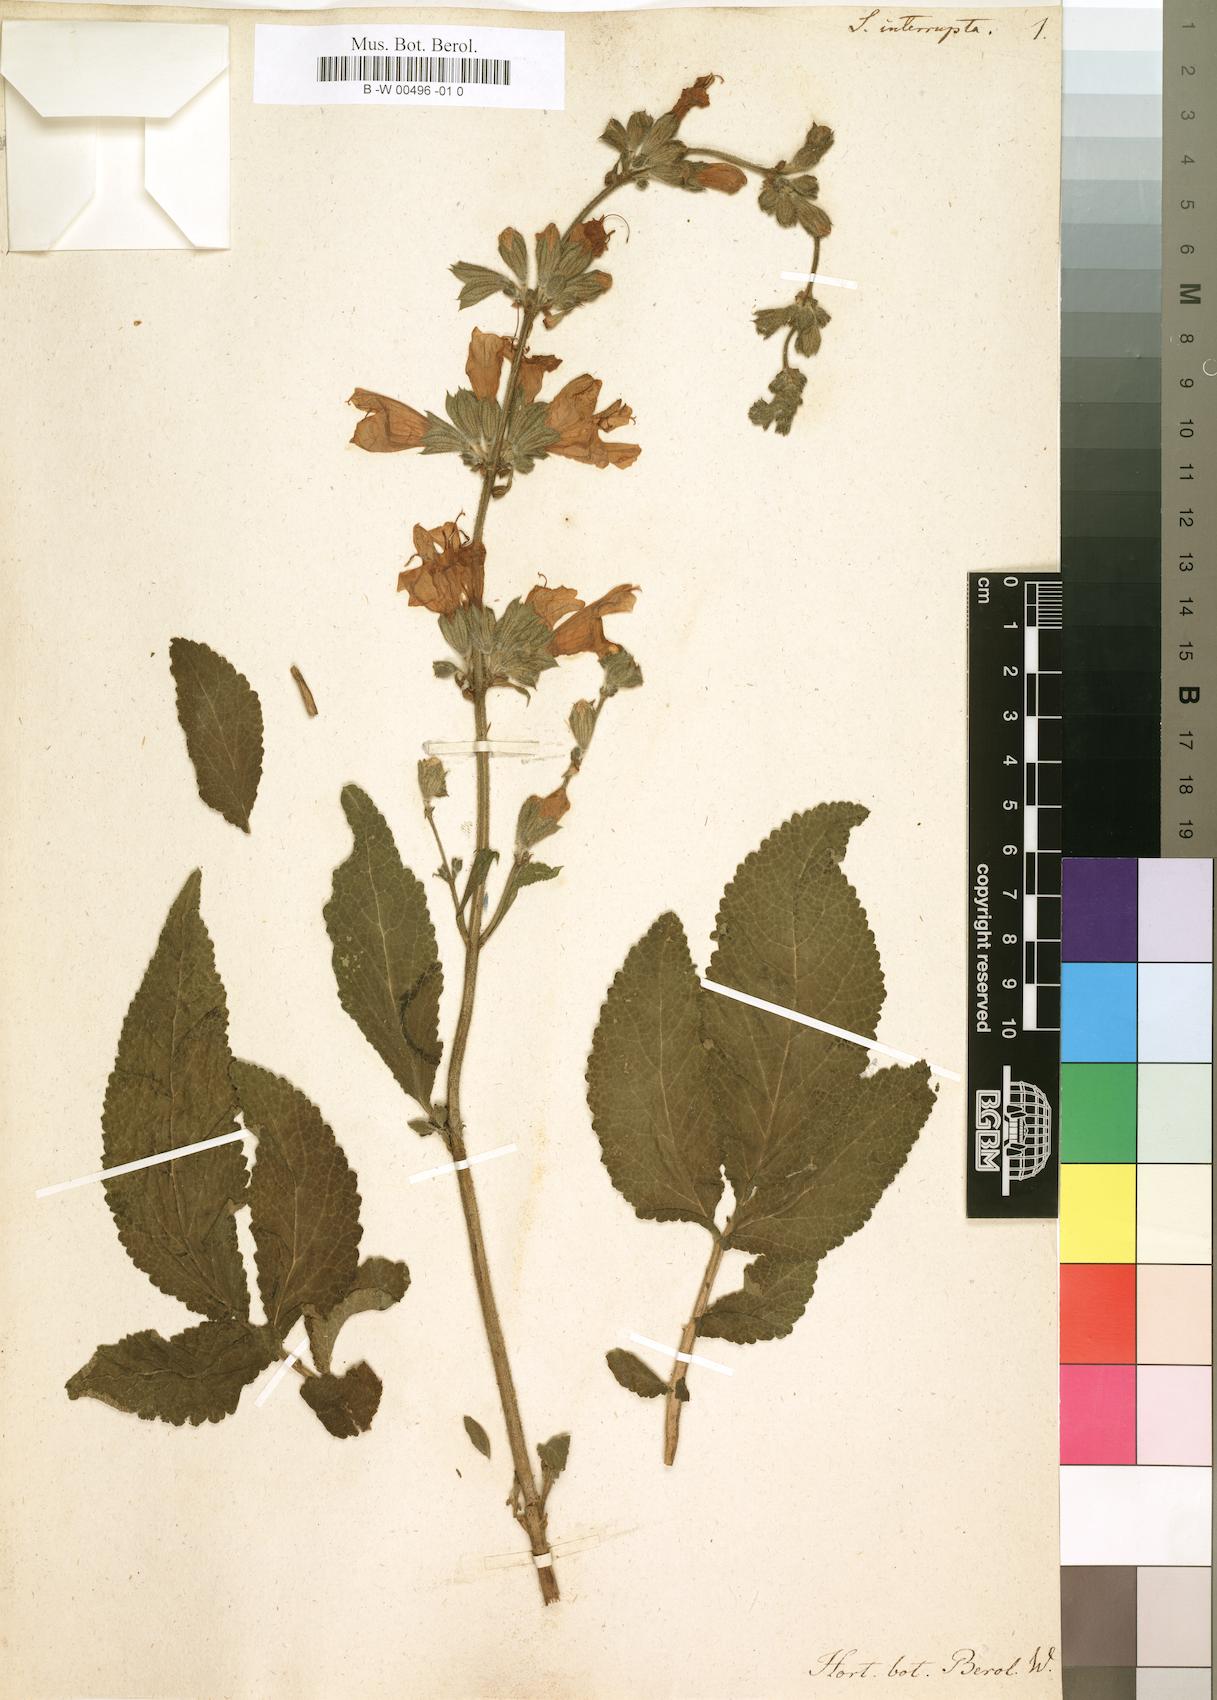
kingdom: Plantae
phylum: Tracheophyta
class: Magnoliopsida
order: Lamiales
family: Lamiaceae
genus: Salvia
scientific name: Salvia interrupta
